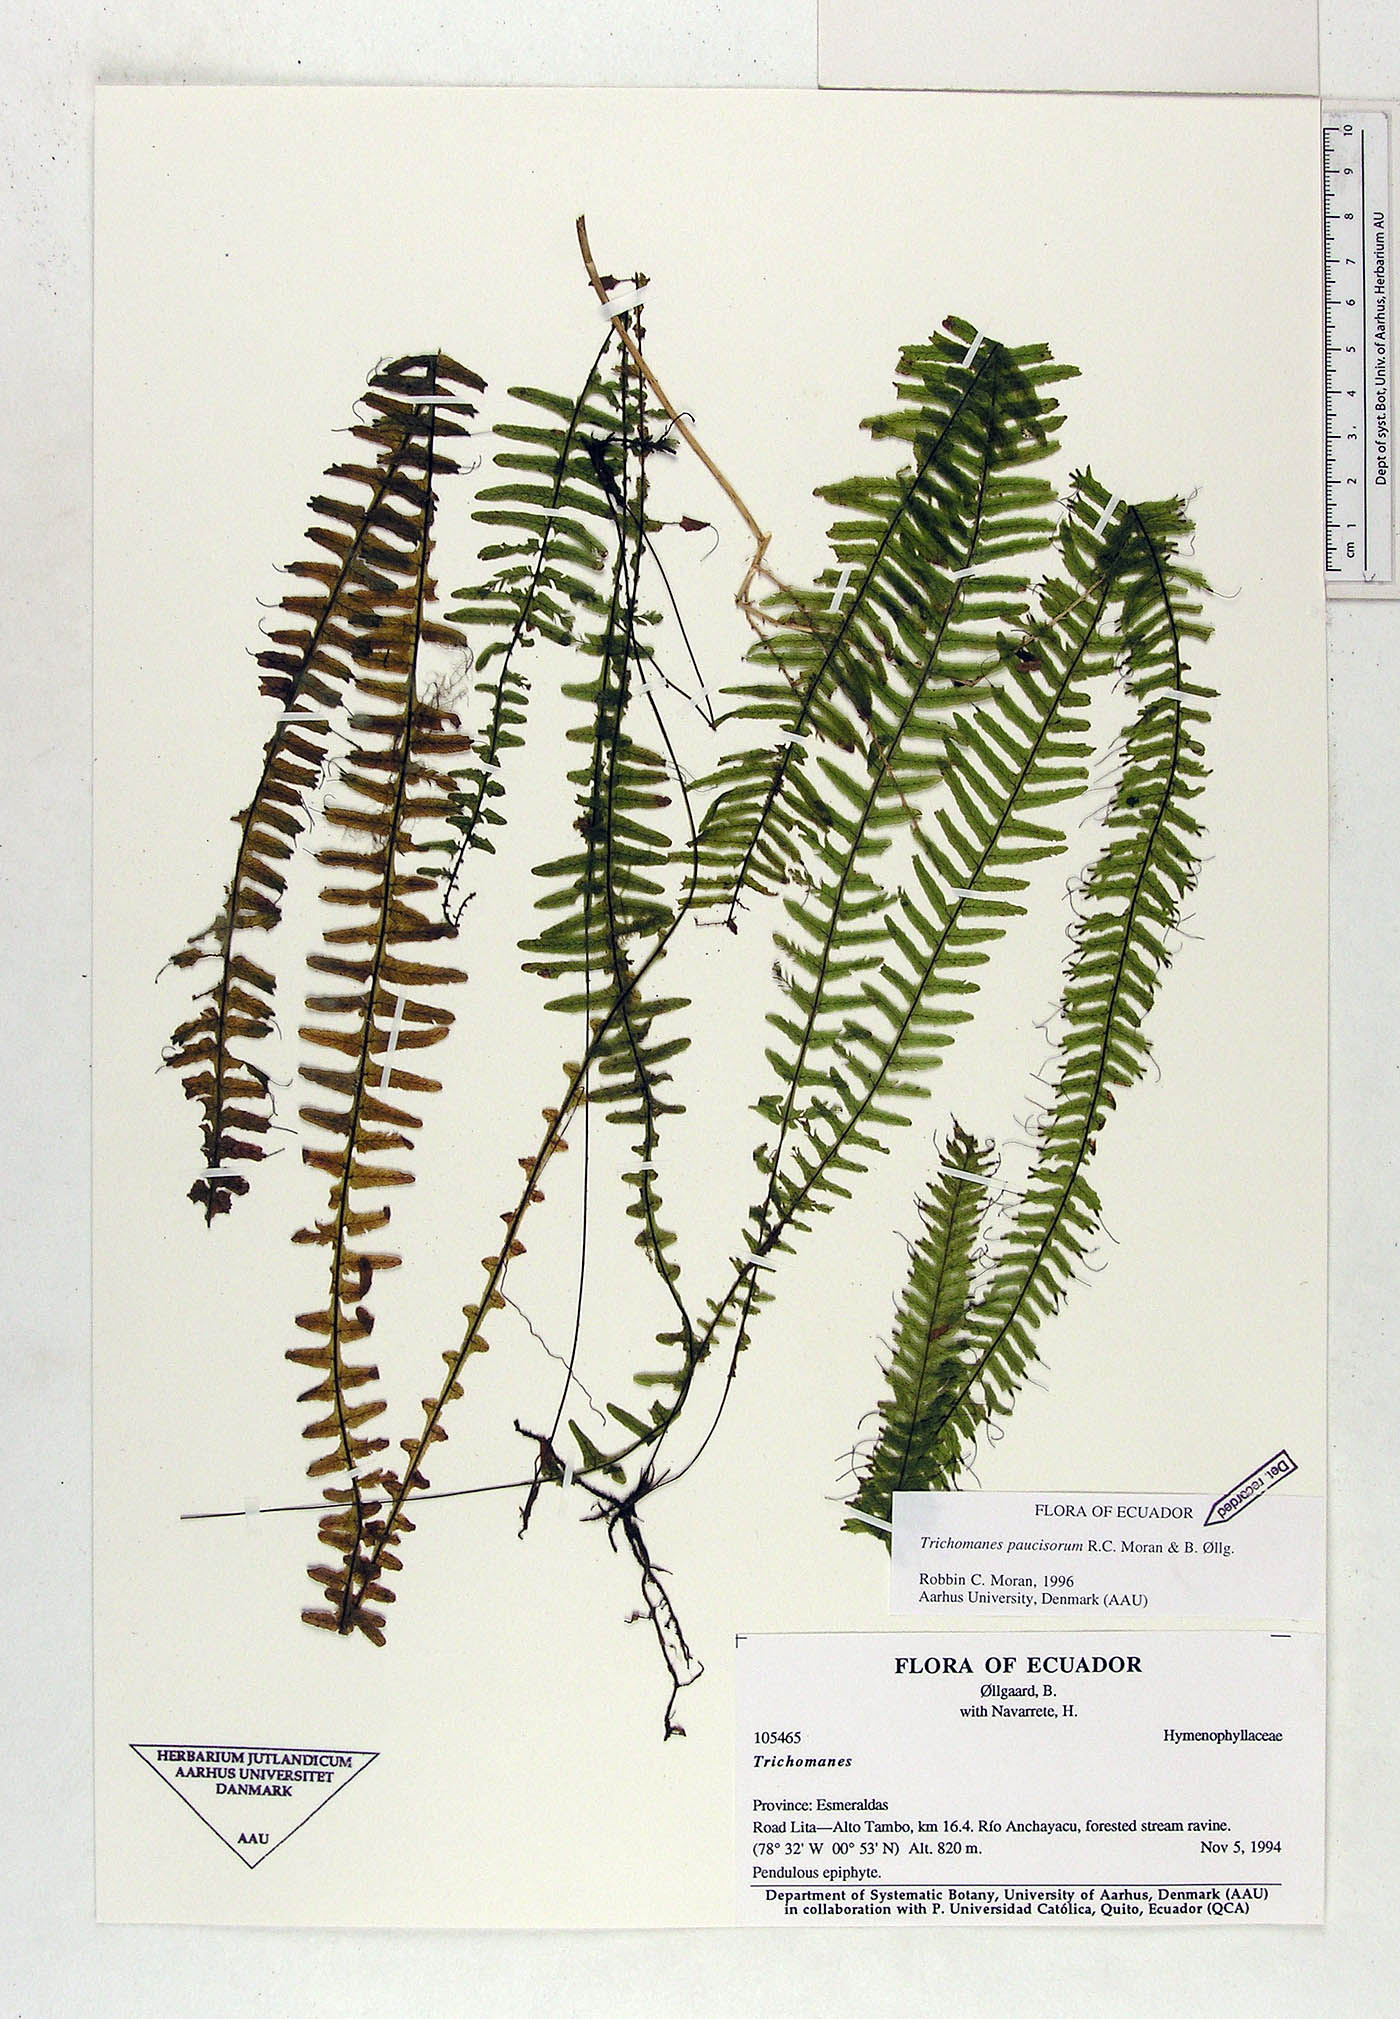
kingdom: Plantae
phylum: Tracheophyta
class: Polypodiopsida
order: Hymenophyllales
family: Hymenophyllaceae
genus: Trichomanes
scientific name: Trichomanes paucisorum
